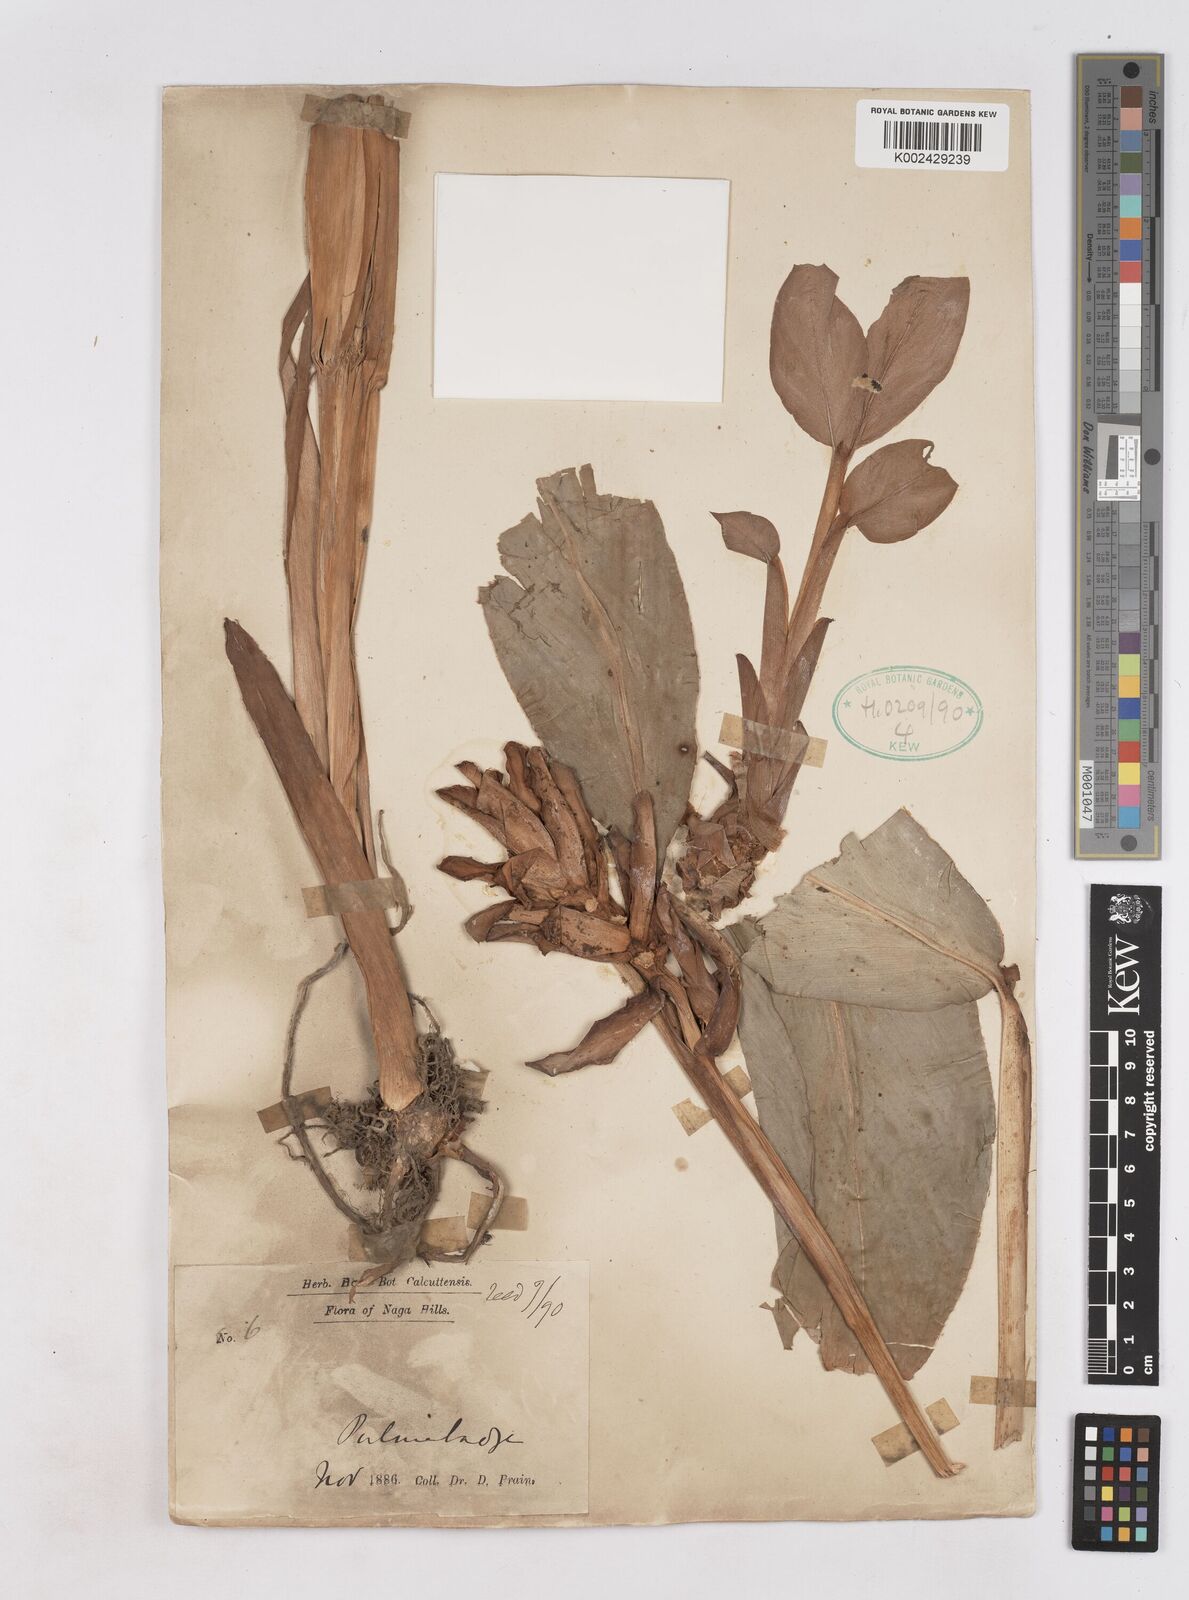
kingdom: Plantae
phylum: Tracheophyta
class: Liliopsida
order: Zingiberales
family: Zingiberaceae
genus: Zingiber
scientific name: Zingiber
